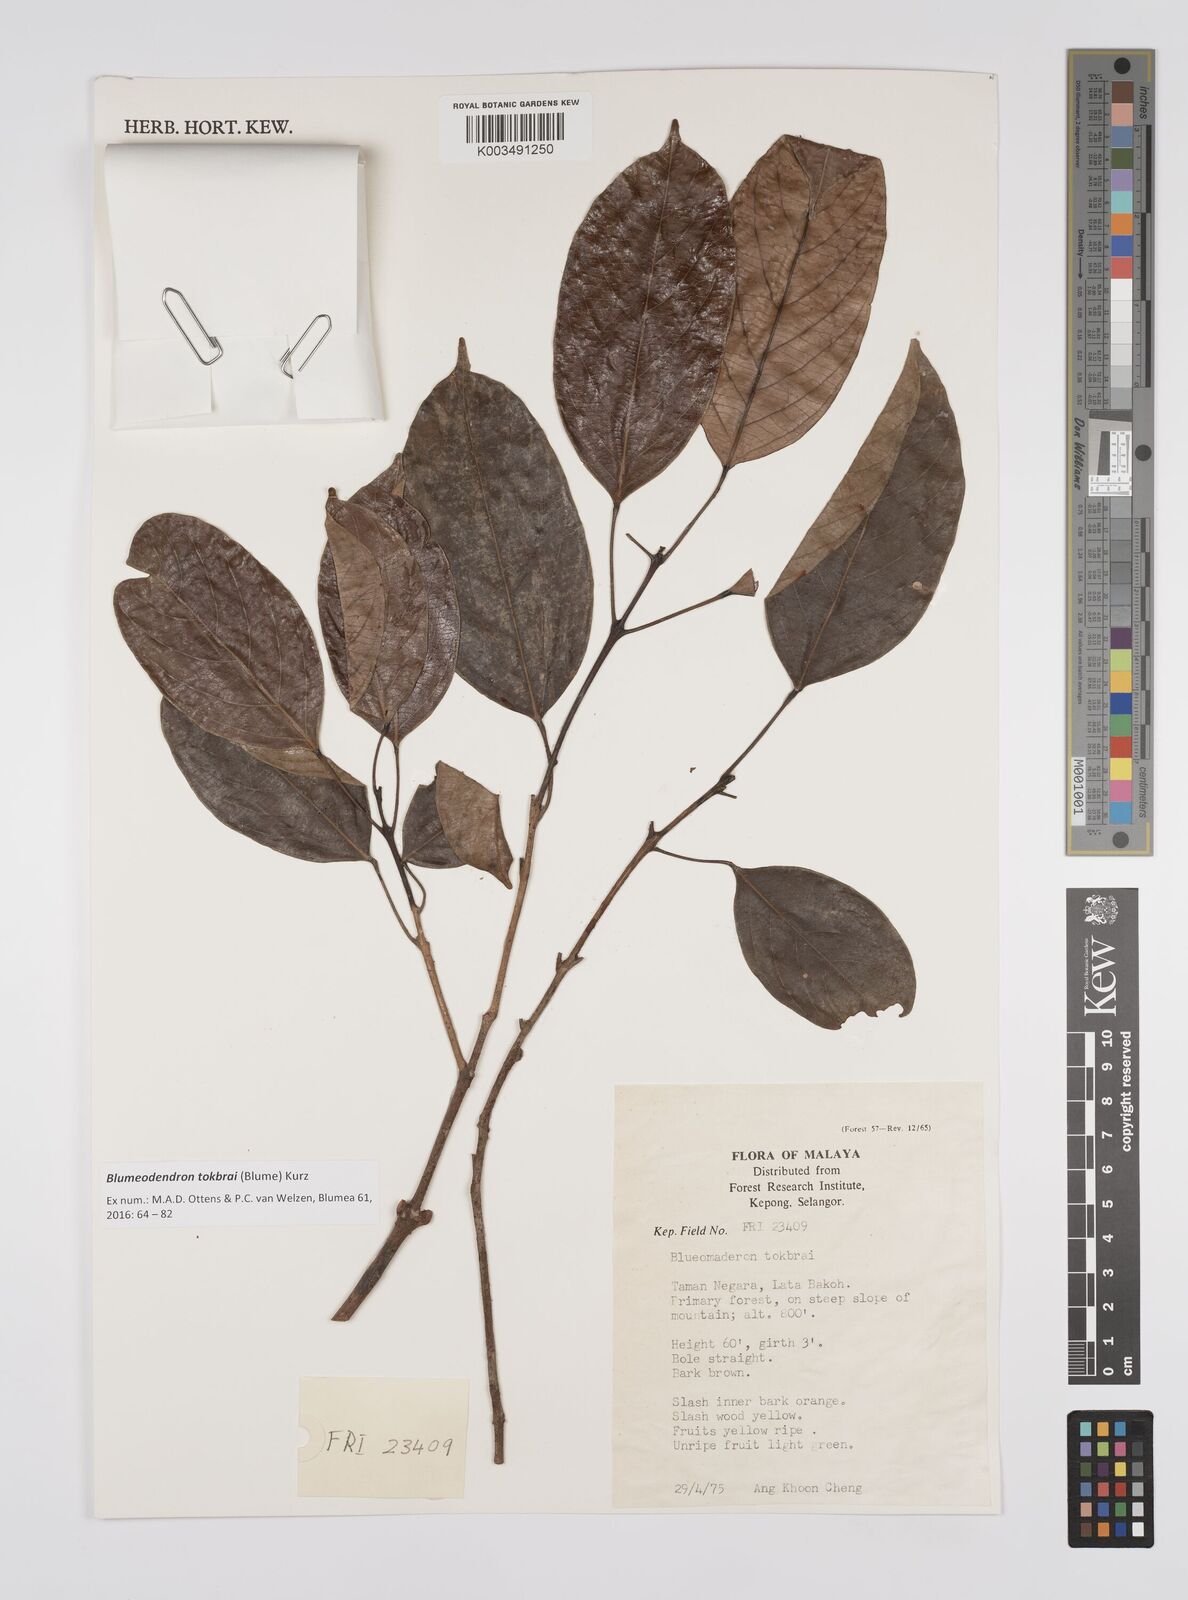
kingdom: Plantae
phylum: Tracheophyta
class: Magnoliopsida
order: Malpighiales
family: Euphorbiaceae
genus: Blumeodendron
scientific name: Blumeodendron tokbrai
